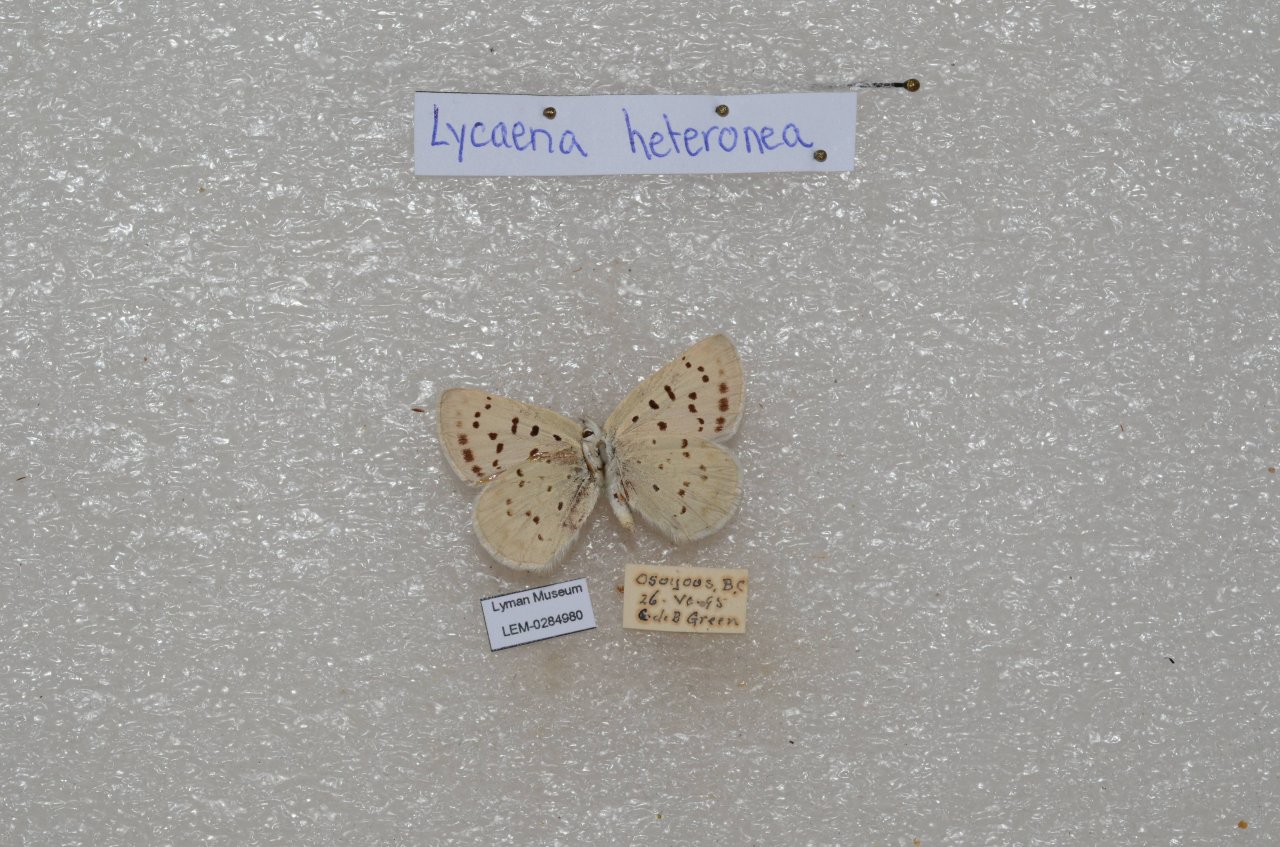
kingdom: Animalia
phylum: Arthropoda
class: Insecta
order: Lepidoptera
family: Lycaenidae
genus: Lycaena
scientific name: Lycaena heteronea
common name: Blue Copper
